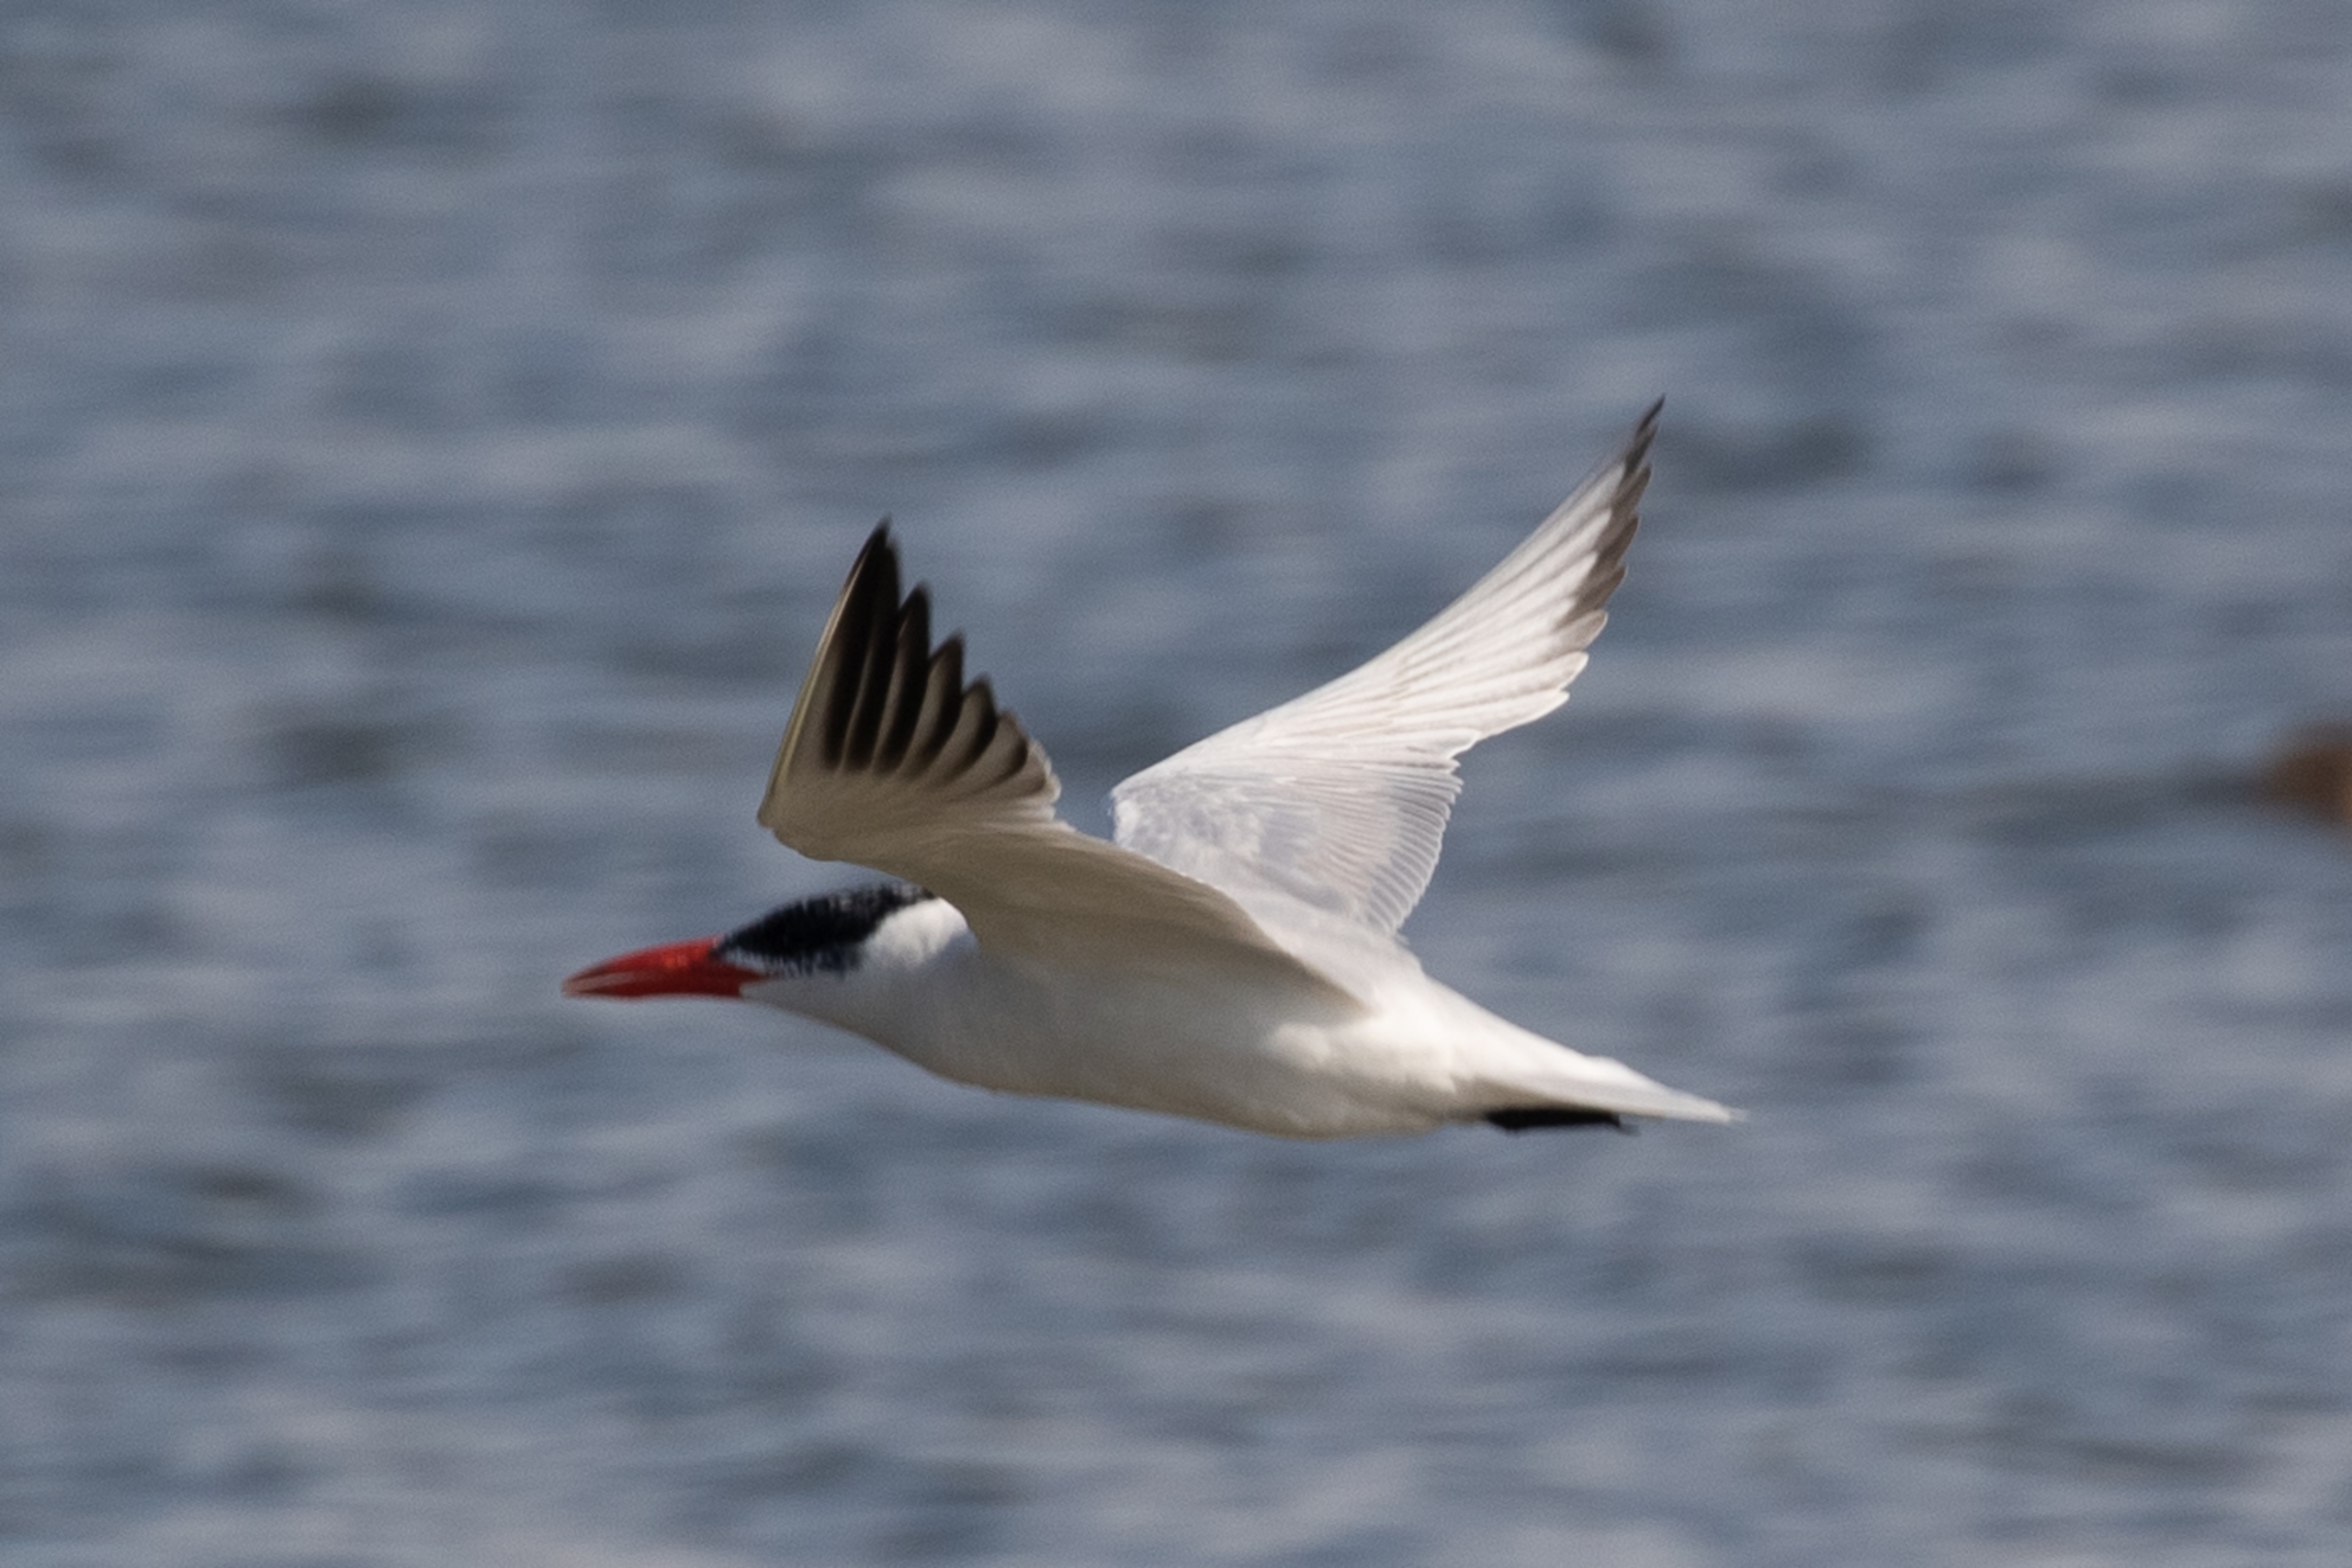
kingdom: Animalia
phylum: Chordata
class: Aves
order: Charadriiformes
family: Laridae
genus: Hydroprogne
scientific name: Hydroprogne caspia
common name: Rovterne
